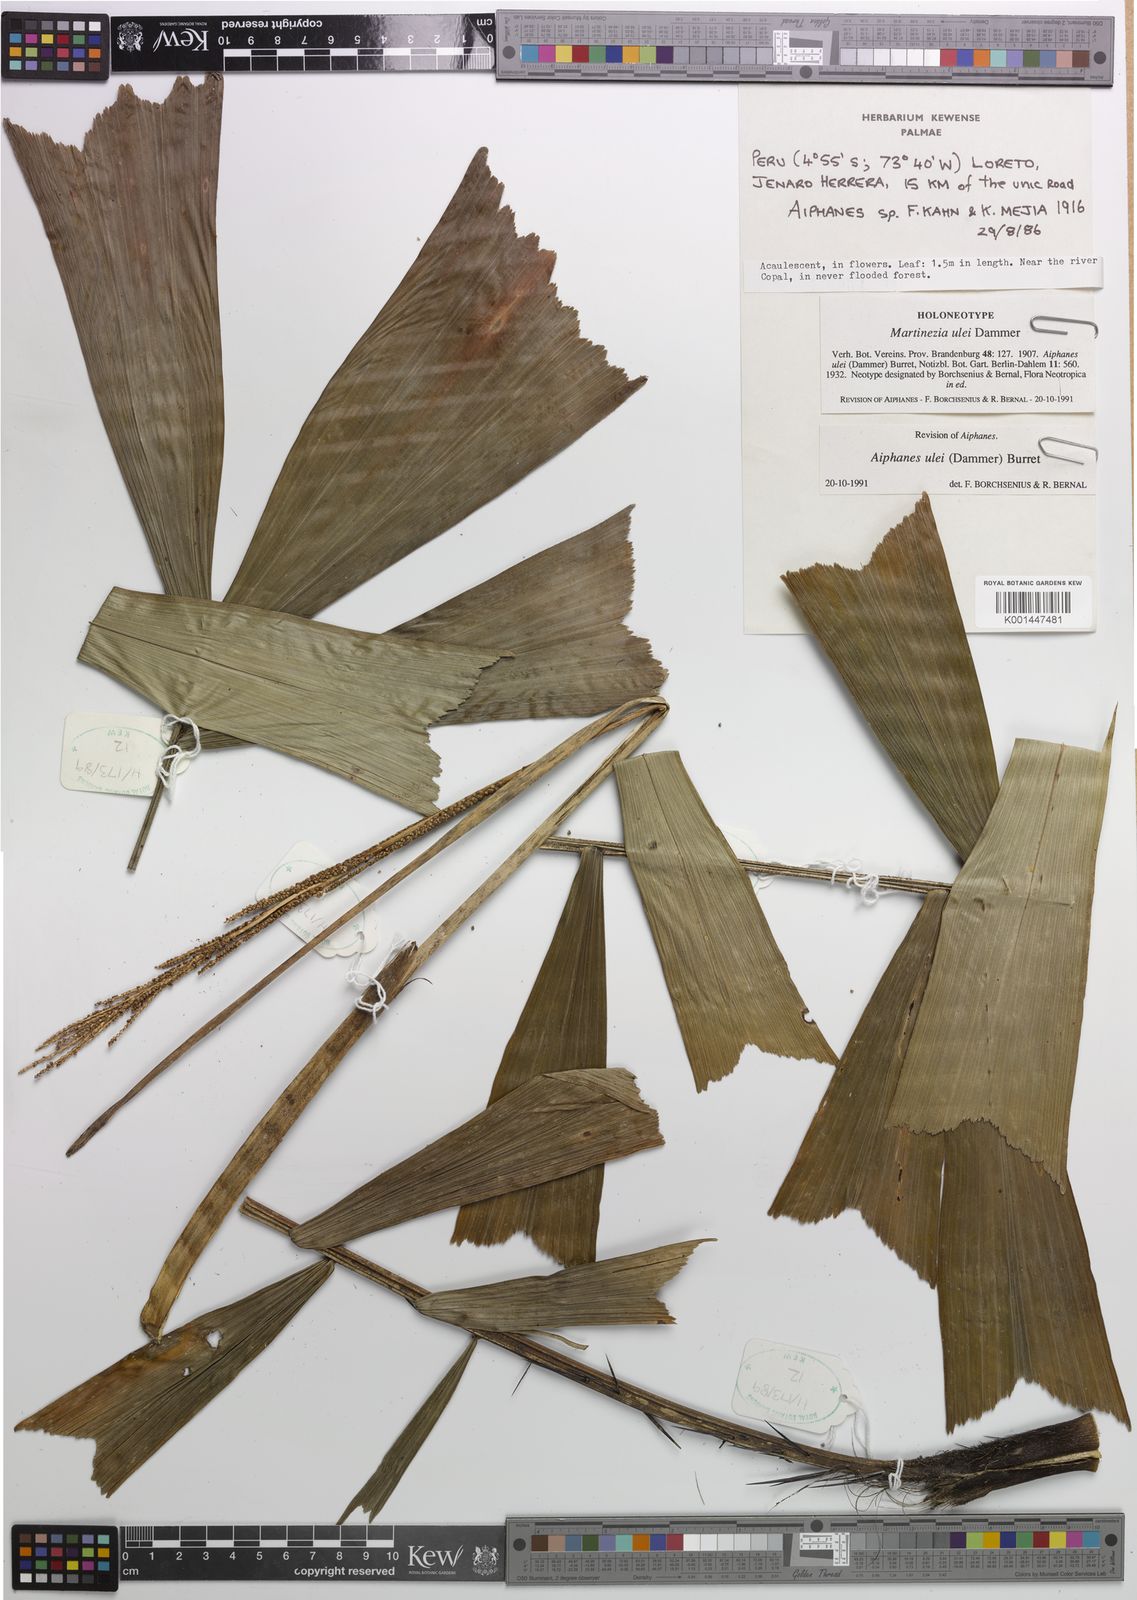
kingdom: Plantae
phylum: Tracheophyta
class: Liliopsida
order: Arecales
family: Arecaceae
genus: Aiphanes
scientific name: Aiphanes ulei
